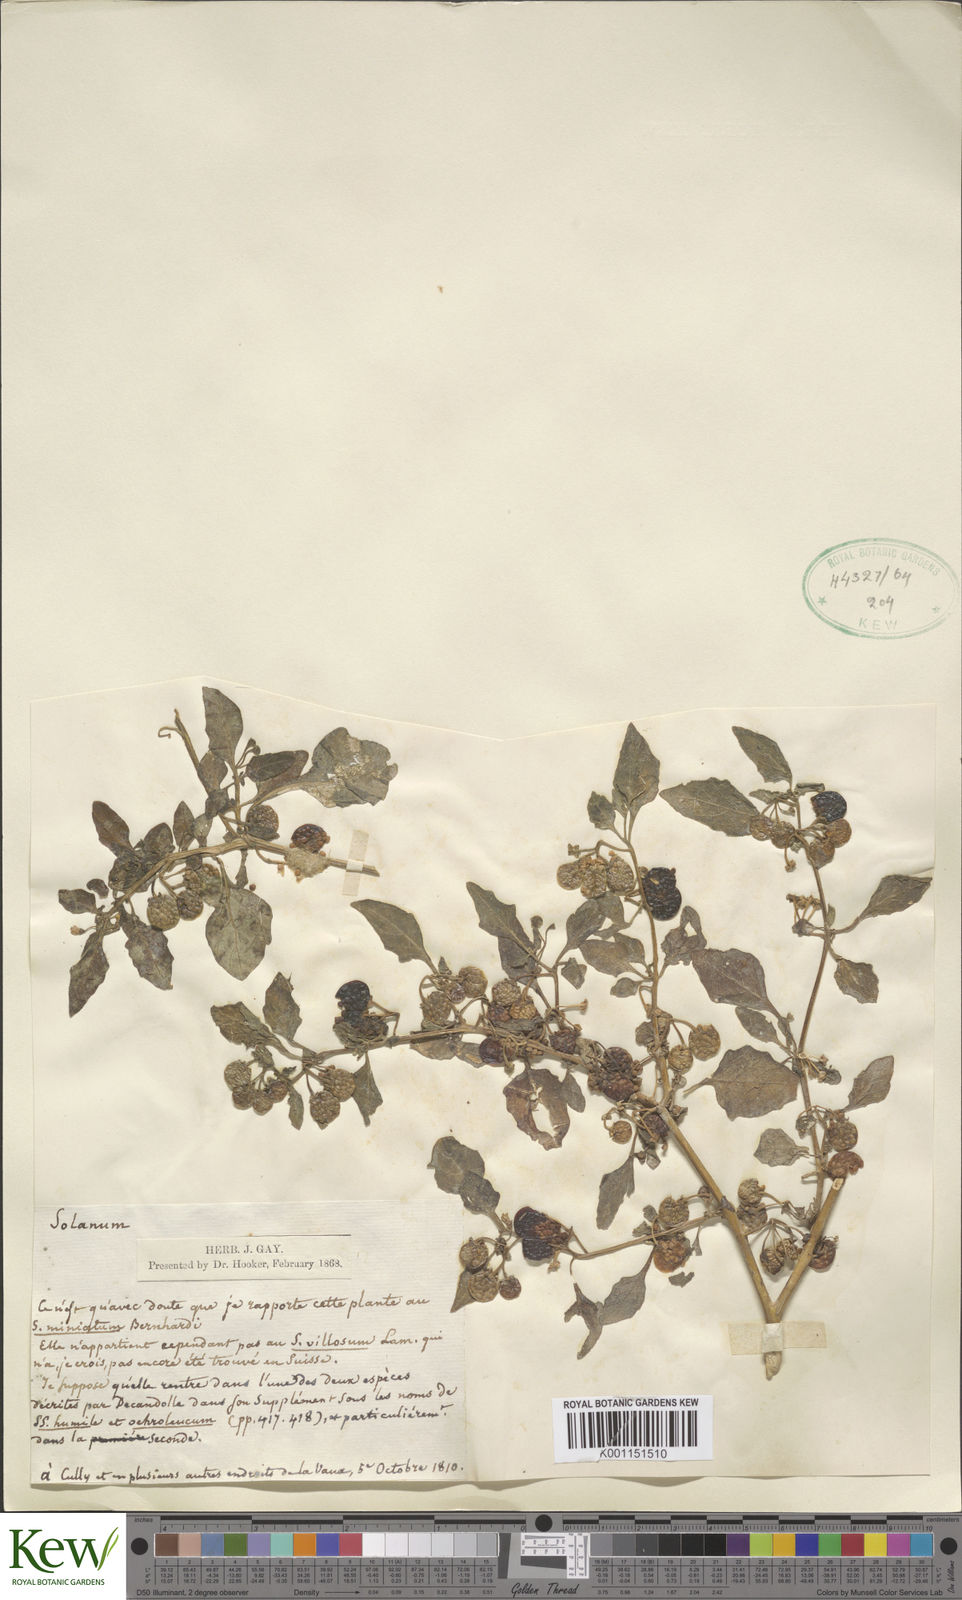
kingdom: Plantae
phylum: Tracheophyta
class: Magnoliopsida
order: Solanales
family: Solanaceae
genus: Solanum
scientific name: Solanum villosum
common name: Red nightshade
